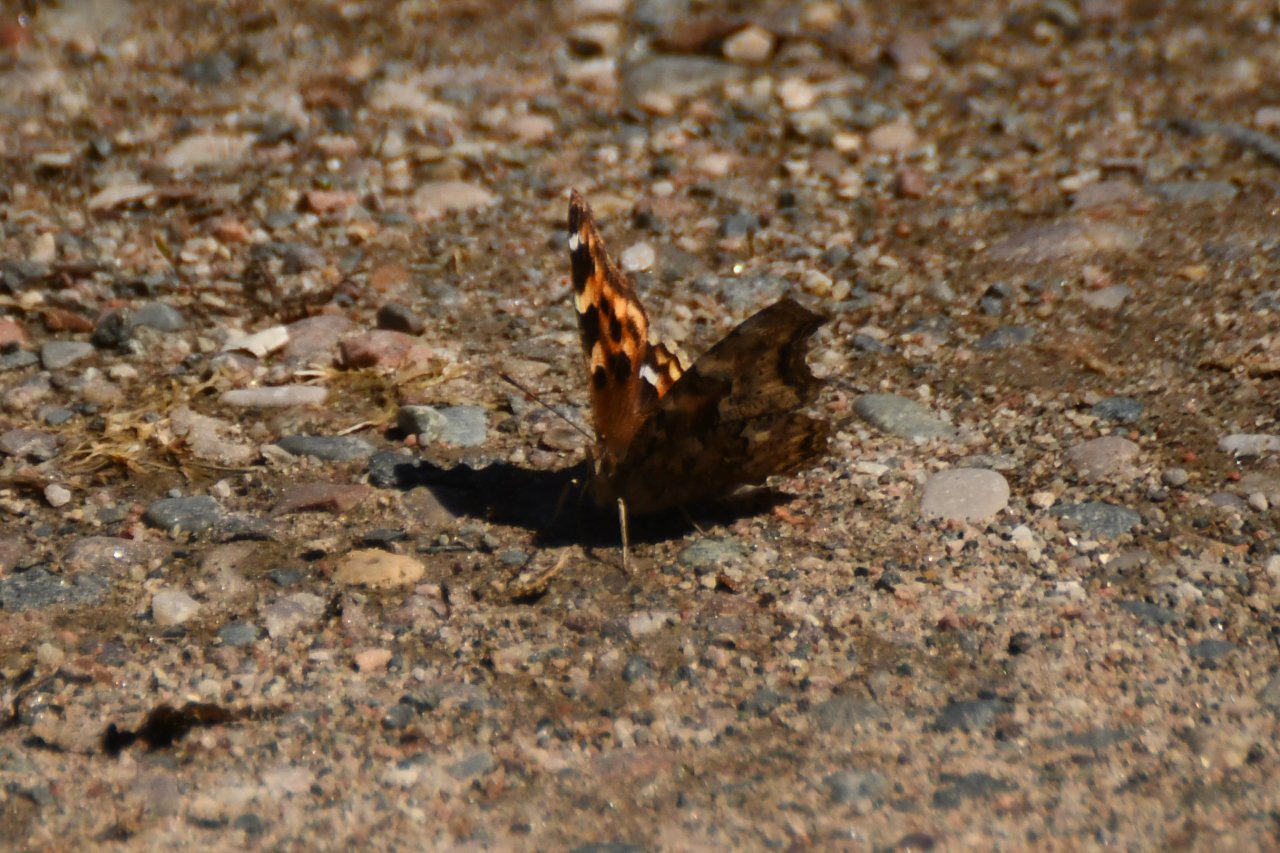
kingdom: Animalia
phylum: Arthropoda
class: Insecta
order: Lepidoptera
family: Nymphalidae
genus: Polygonia
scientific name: Polygonia vaualbum
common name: Compton Tortoiseshell
